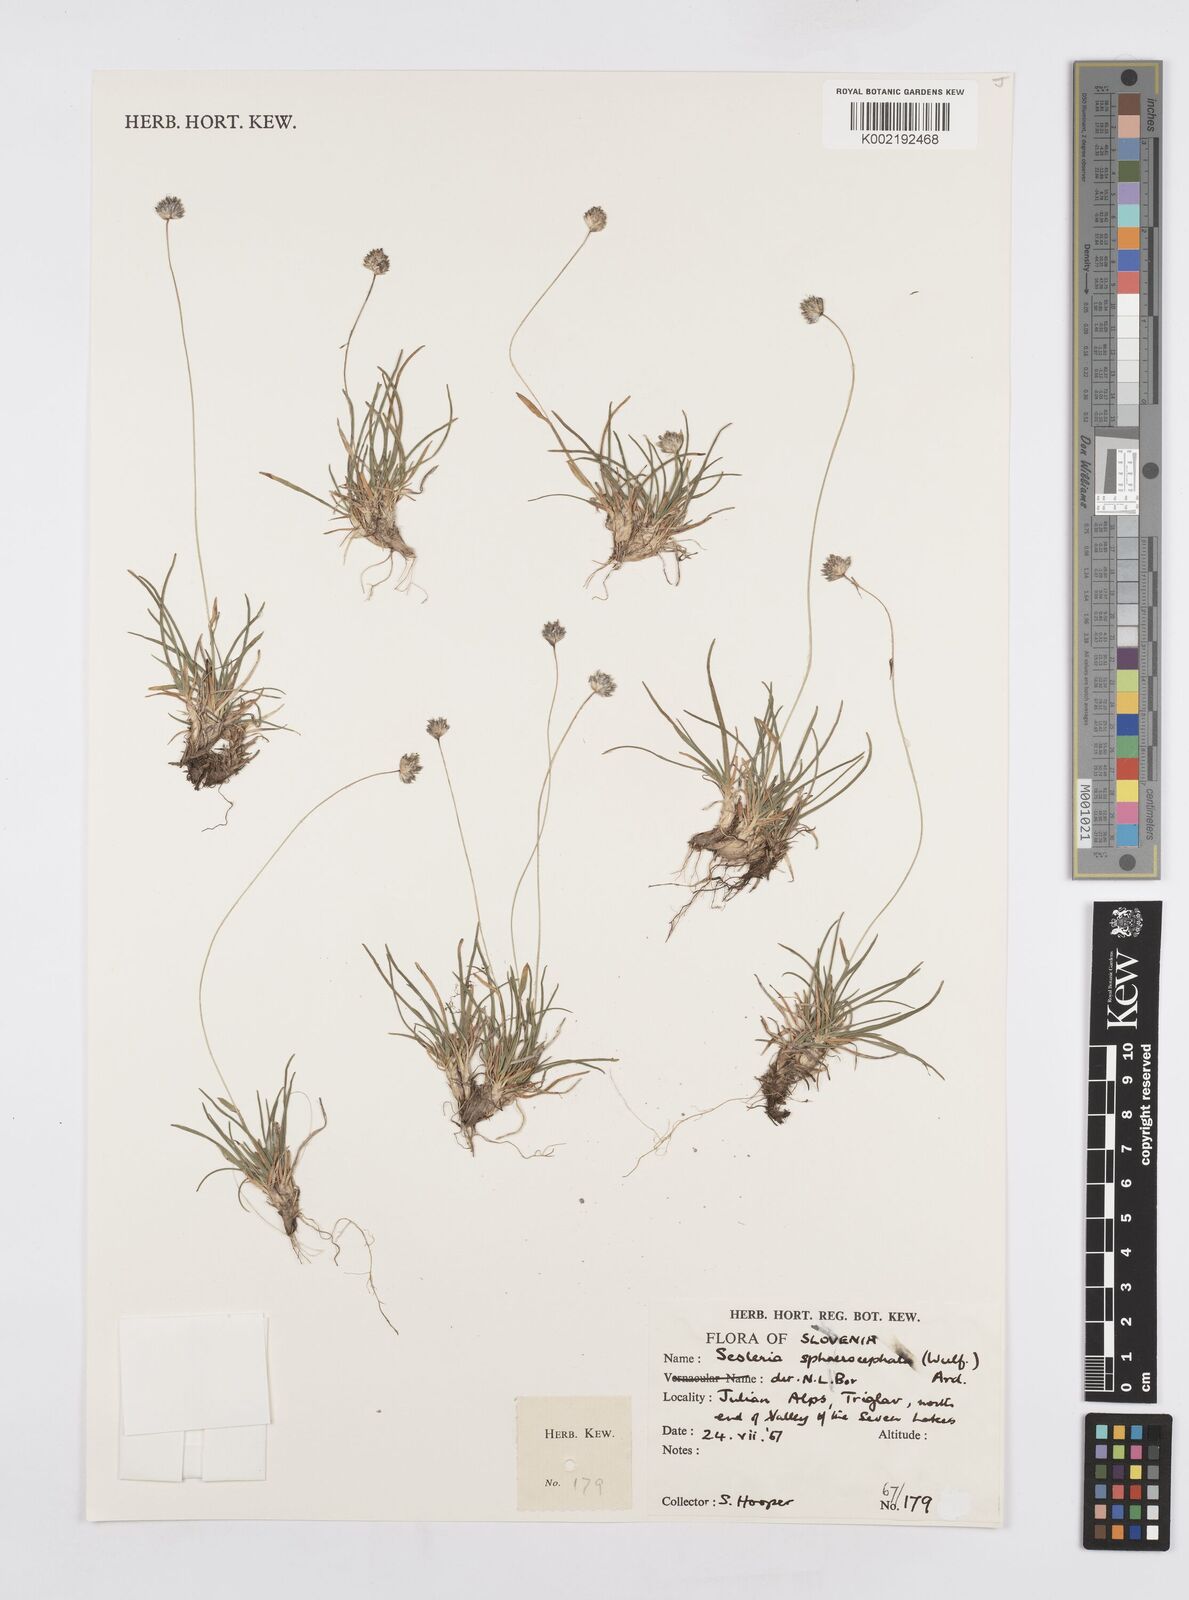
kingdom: Plantae
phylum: Tracheophyta
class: Liliopsida
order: Poales
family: Poaceae
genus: Sesleriella
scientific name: Sesleriella sphaerocephala
